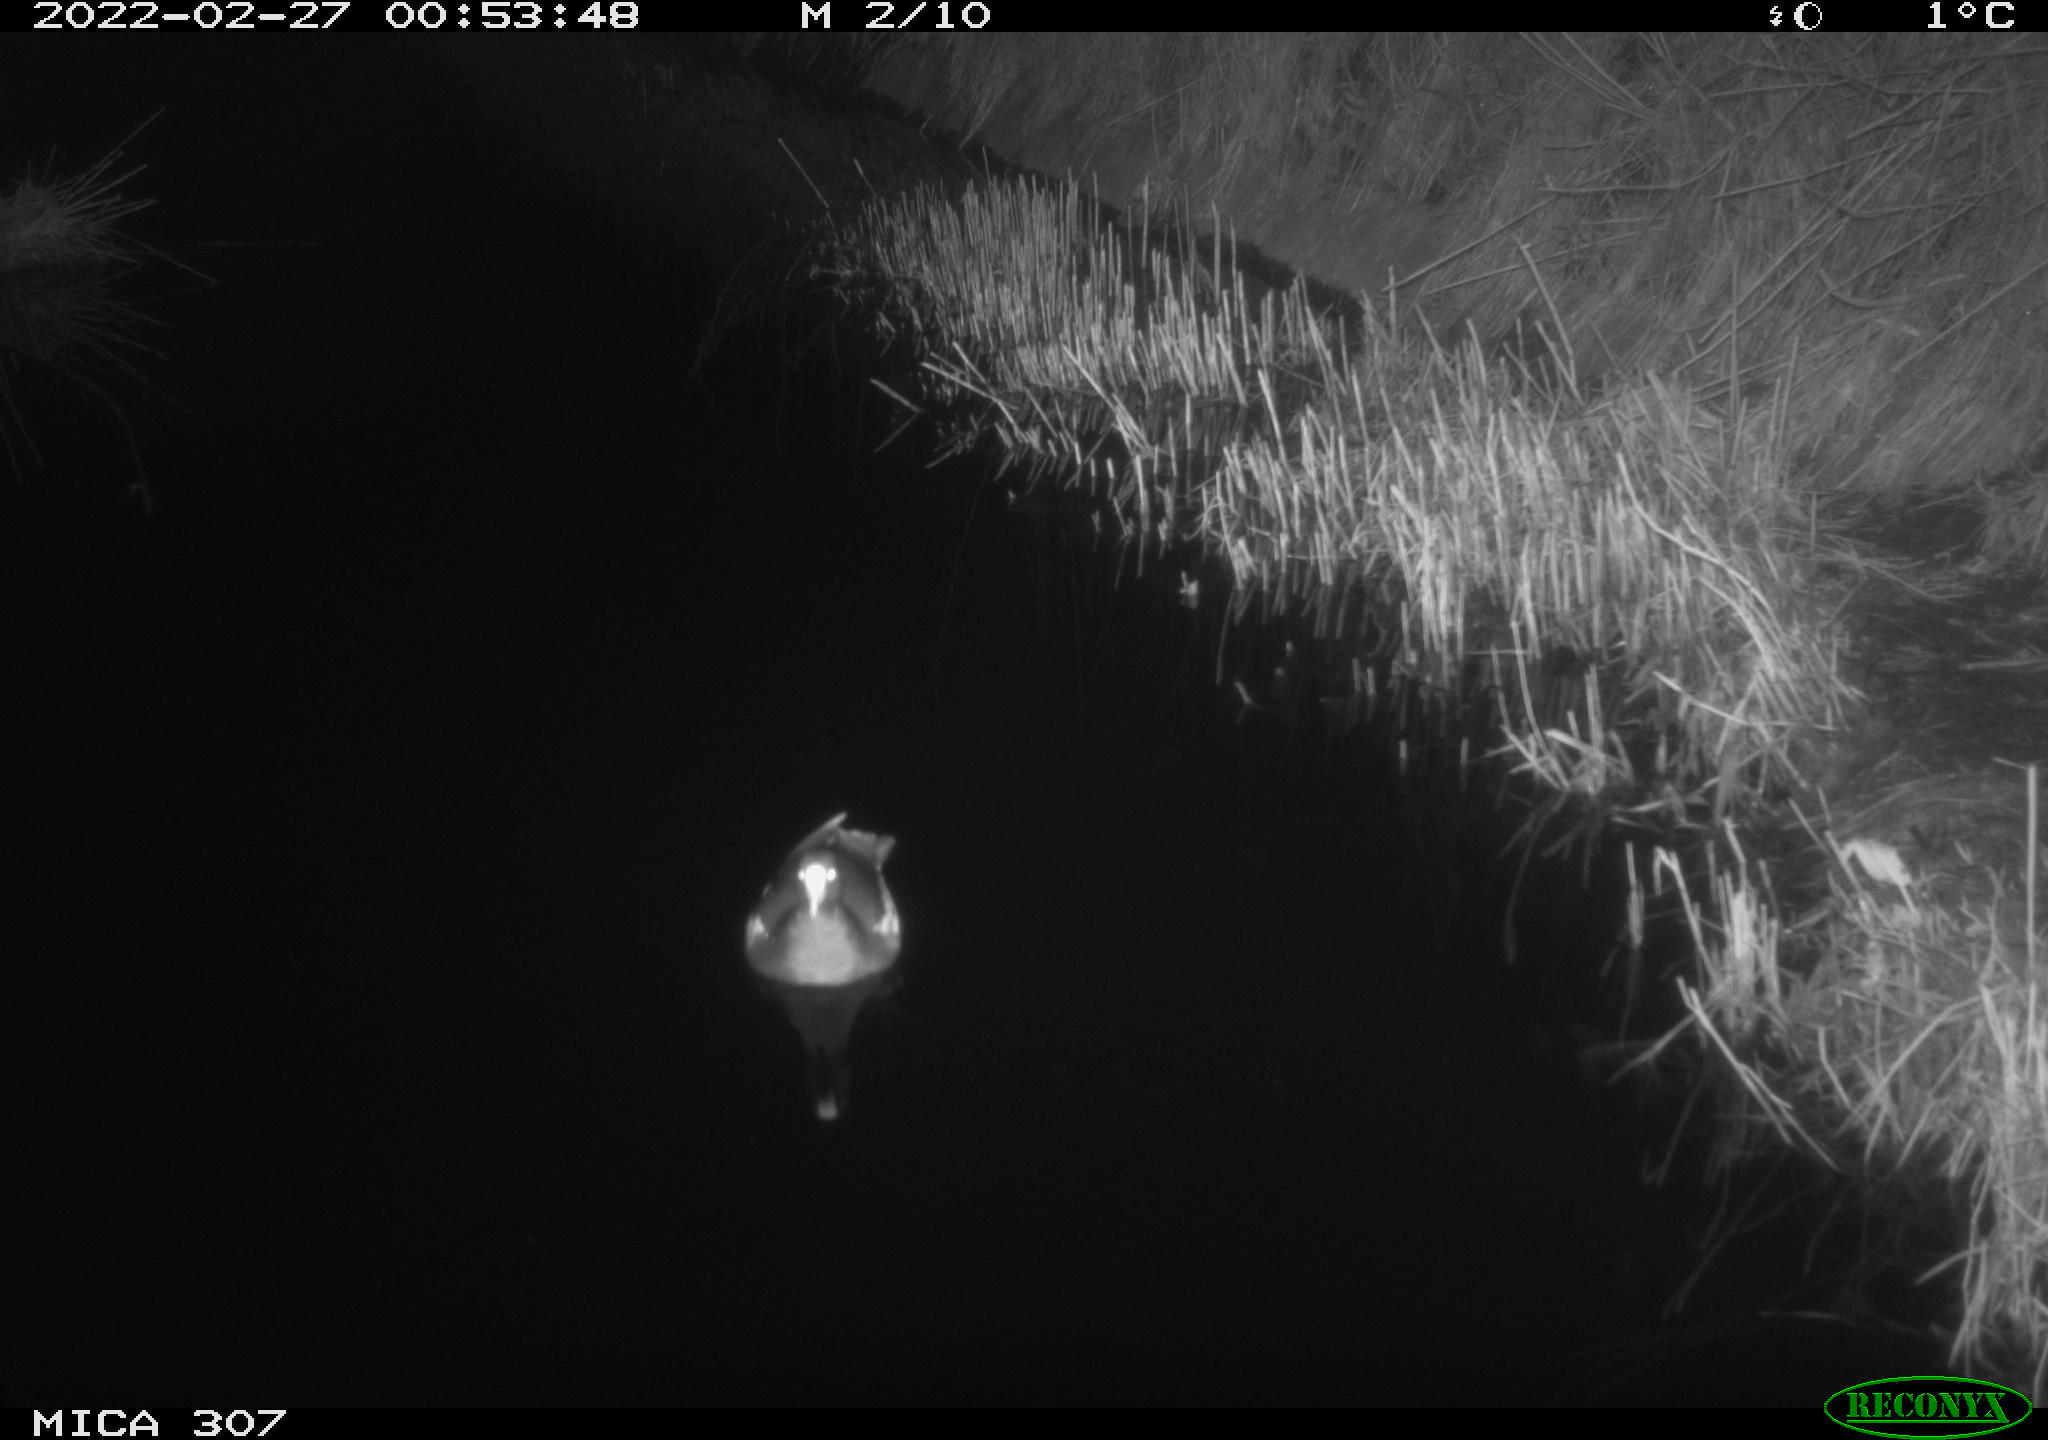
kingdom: Animalia
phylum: Chordata
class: Aves
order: Gruiformes
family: Rallidae
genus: Gallinula
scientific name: Gallinula chloropus
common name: Common moorhen
